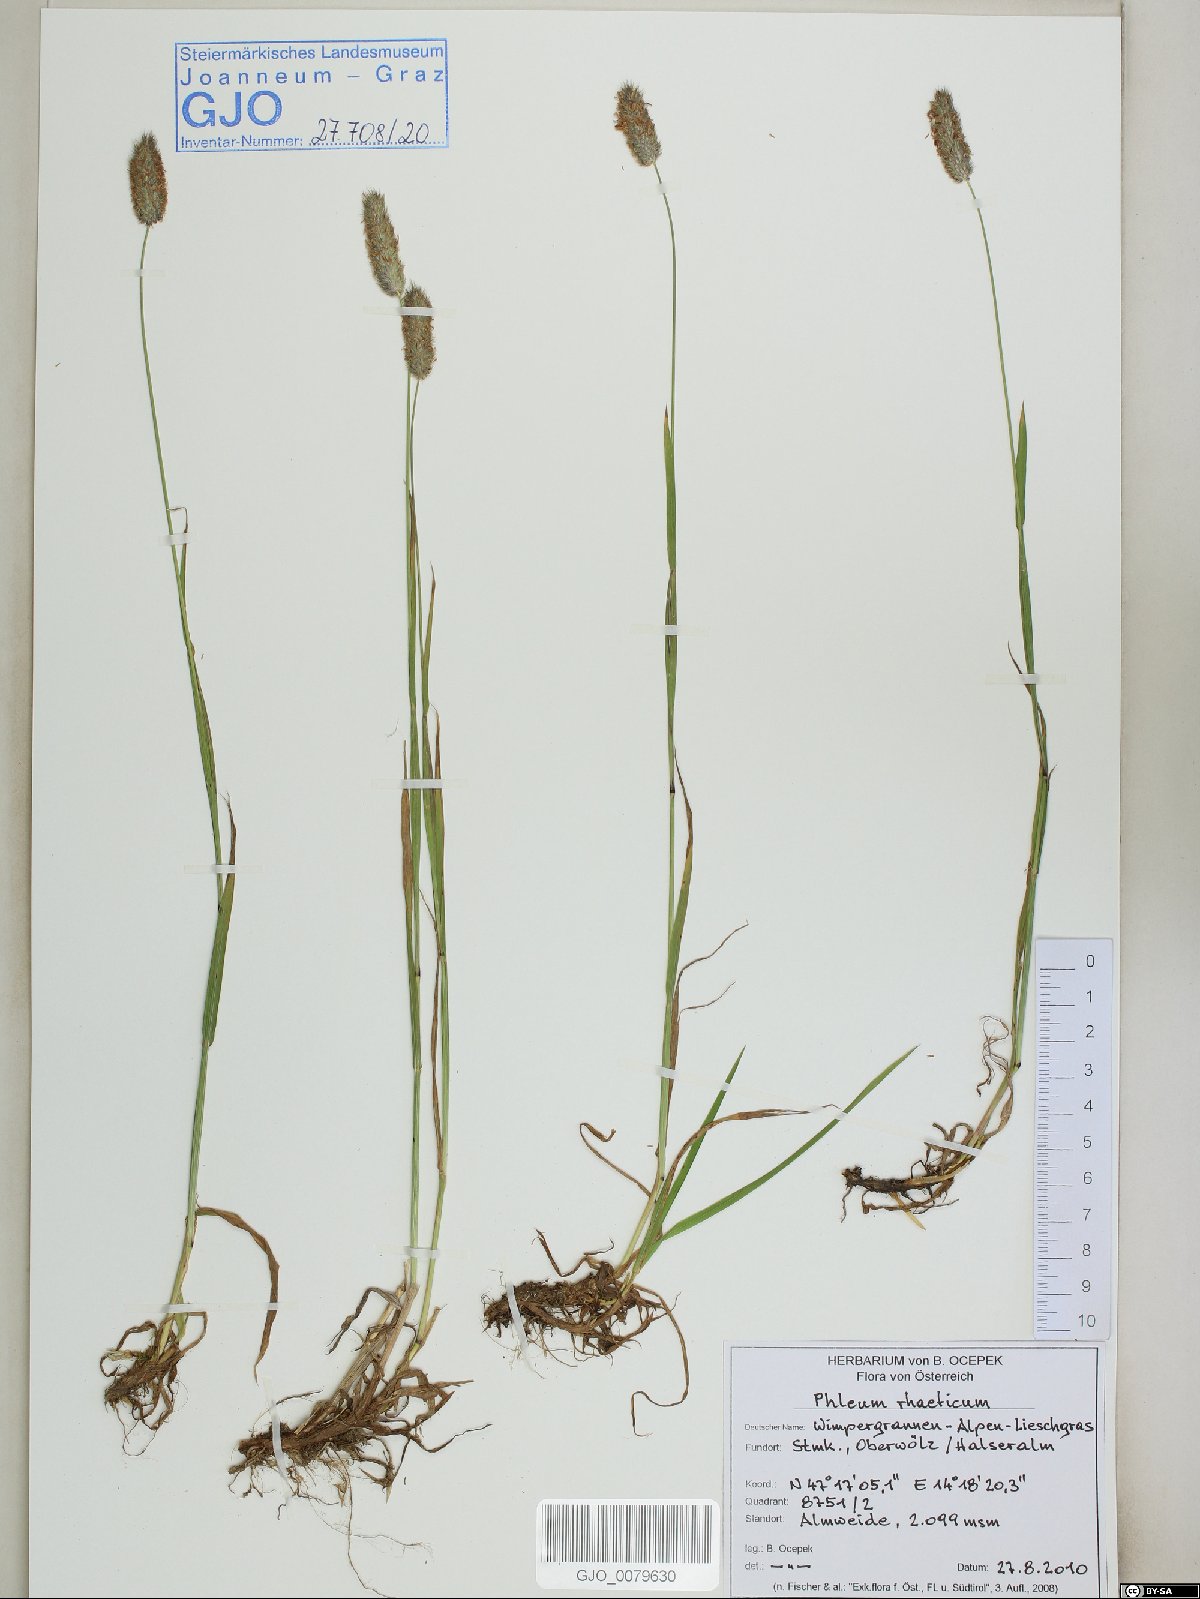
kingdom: Plantae
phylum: Tracheophyta
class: Liliopsida
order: Poales
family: Poaceae
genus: Phleum
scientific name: Phleum alpinum
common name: Alpine cat's-tail
